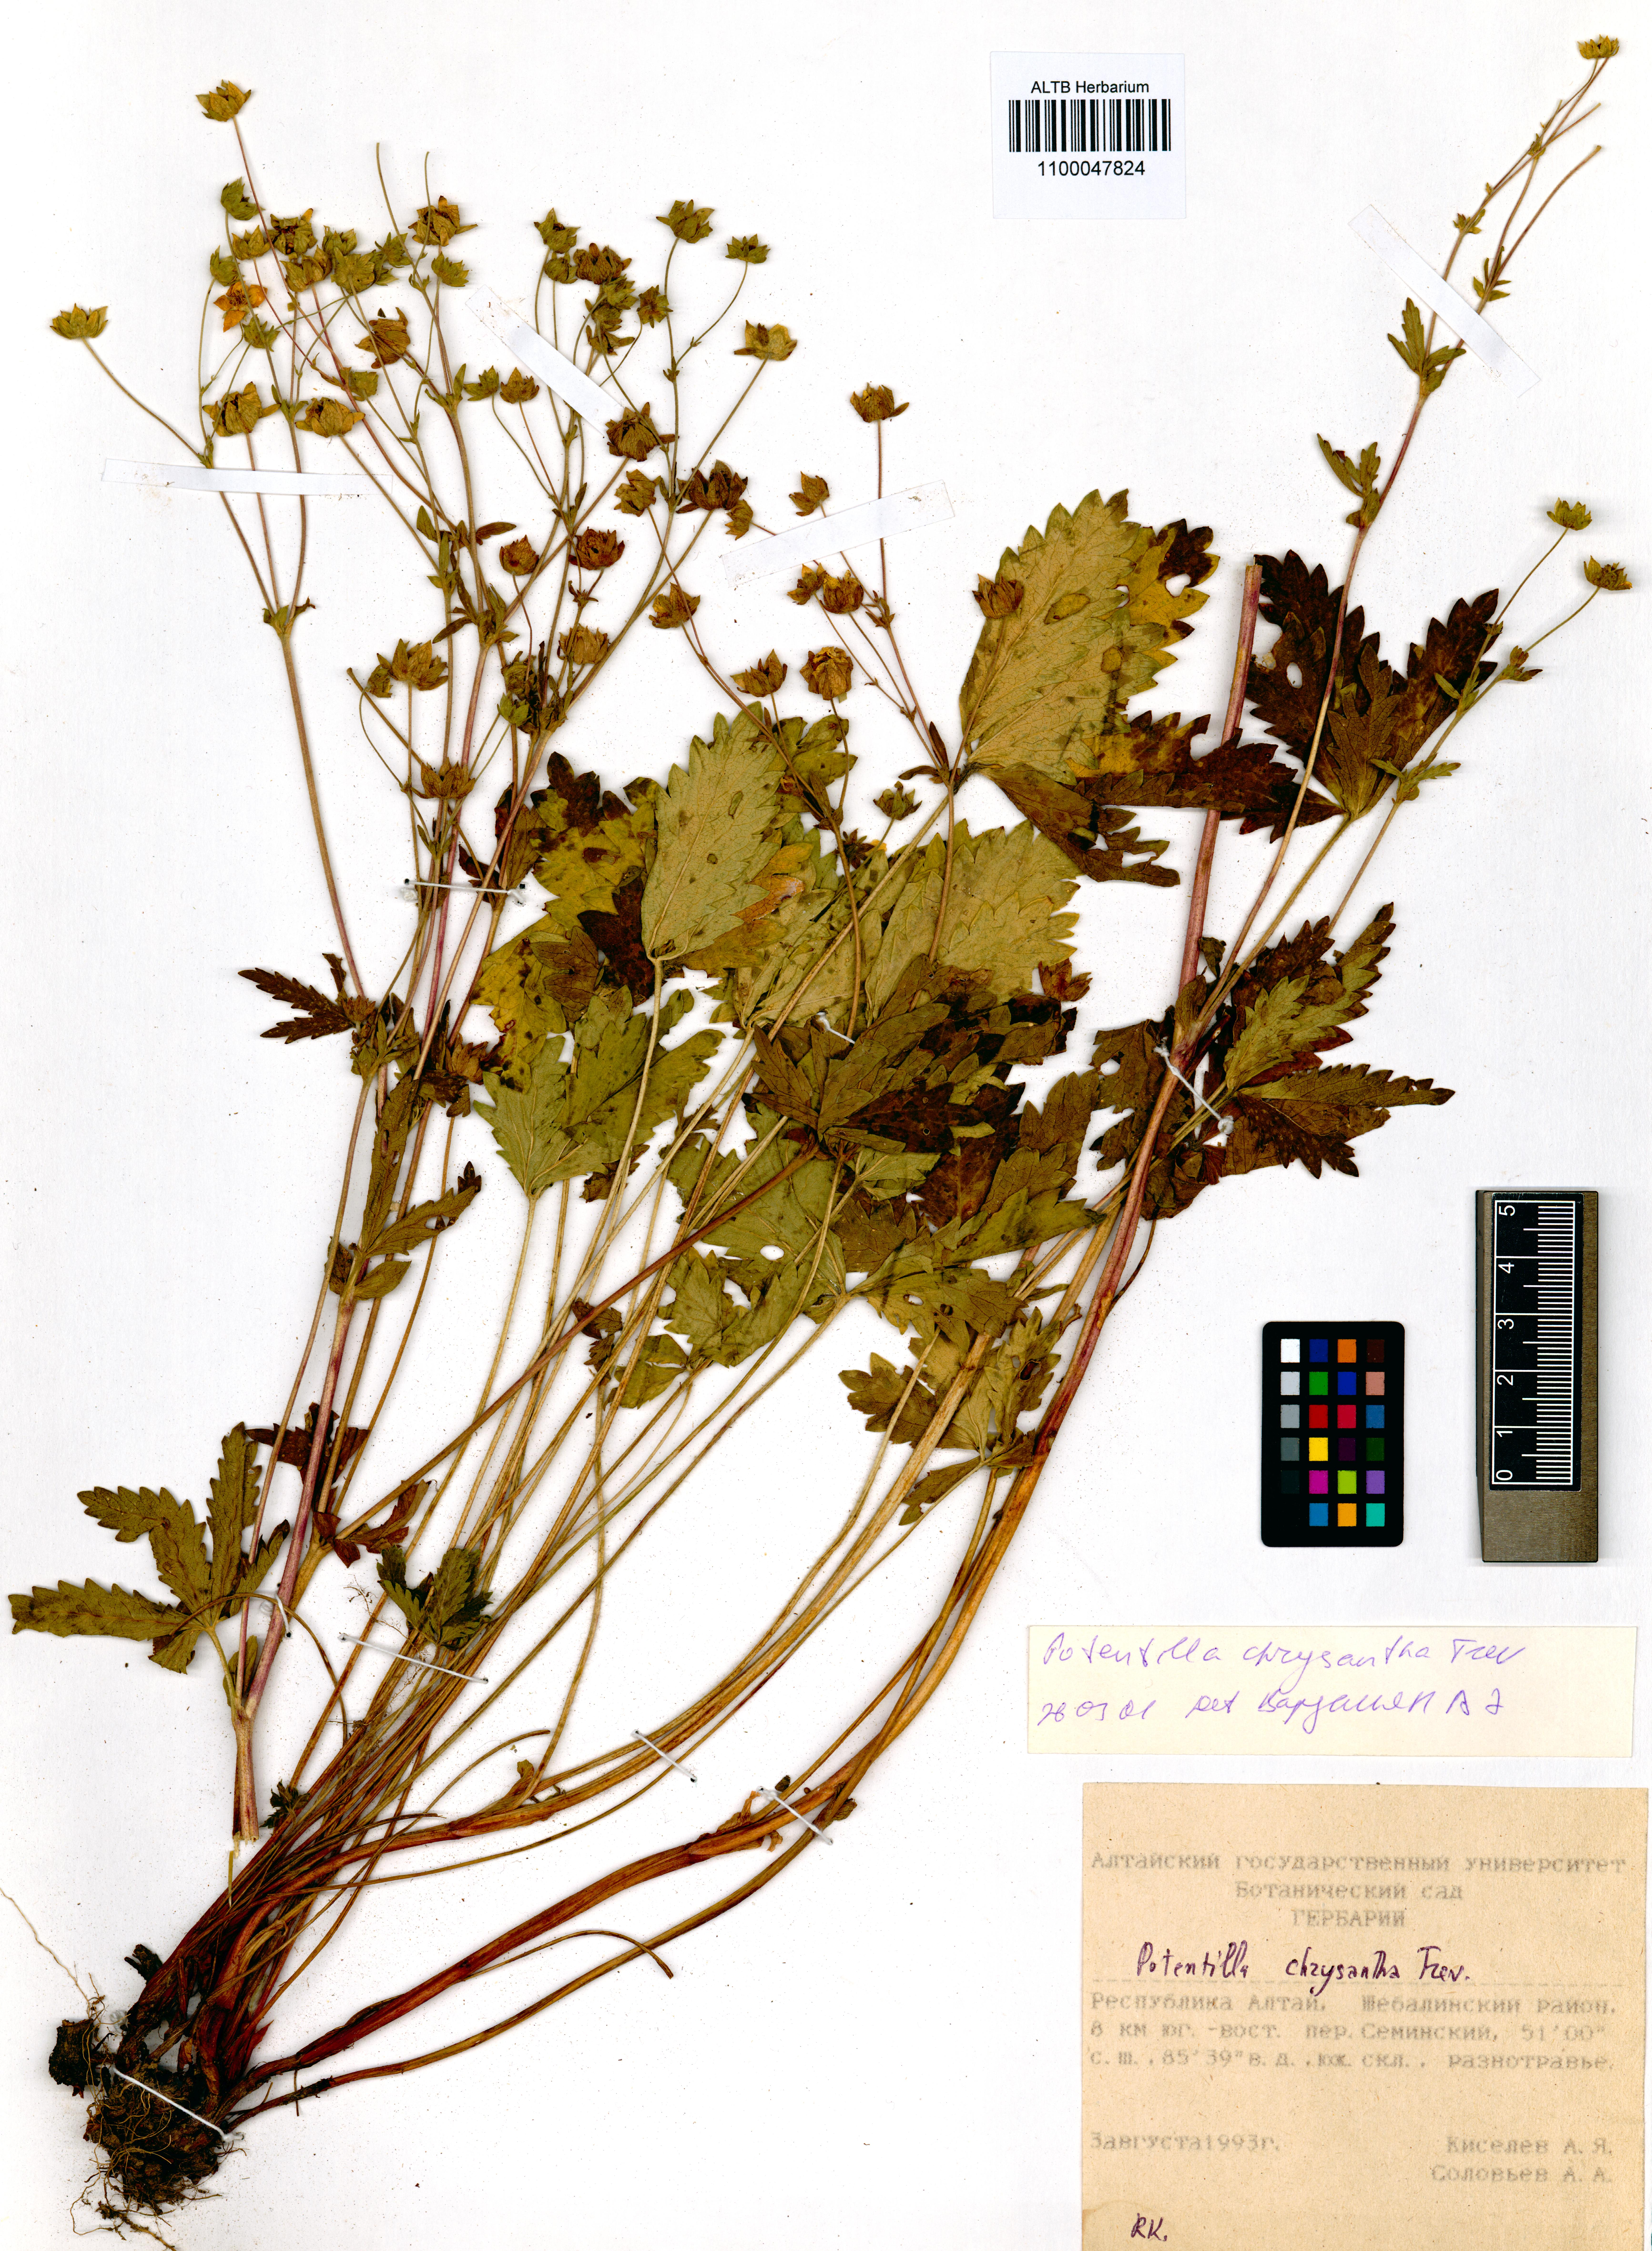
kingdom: Plantae
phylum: Tracheophyta
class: Magnoliopsida
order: Rosales
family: Rosaceae
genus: Potentilla
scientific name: Potentilla chrysantha
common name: Thuringian cinquefoil
